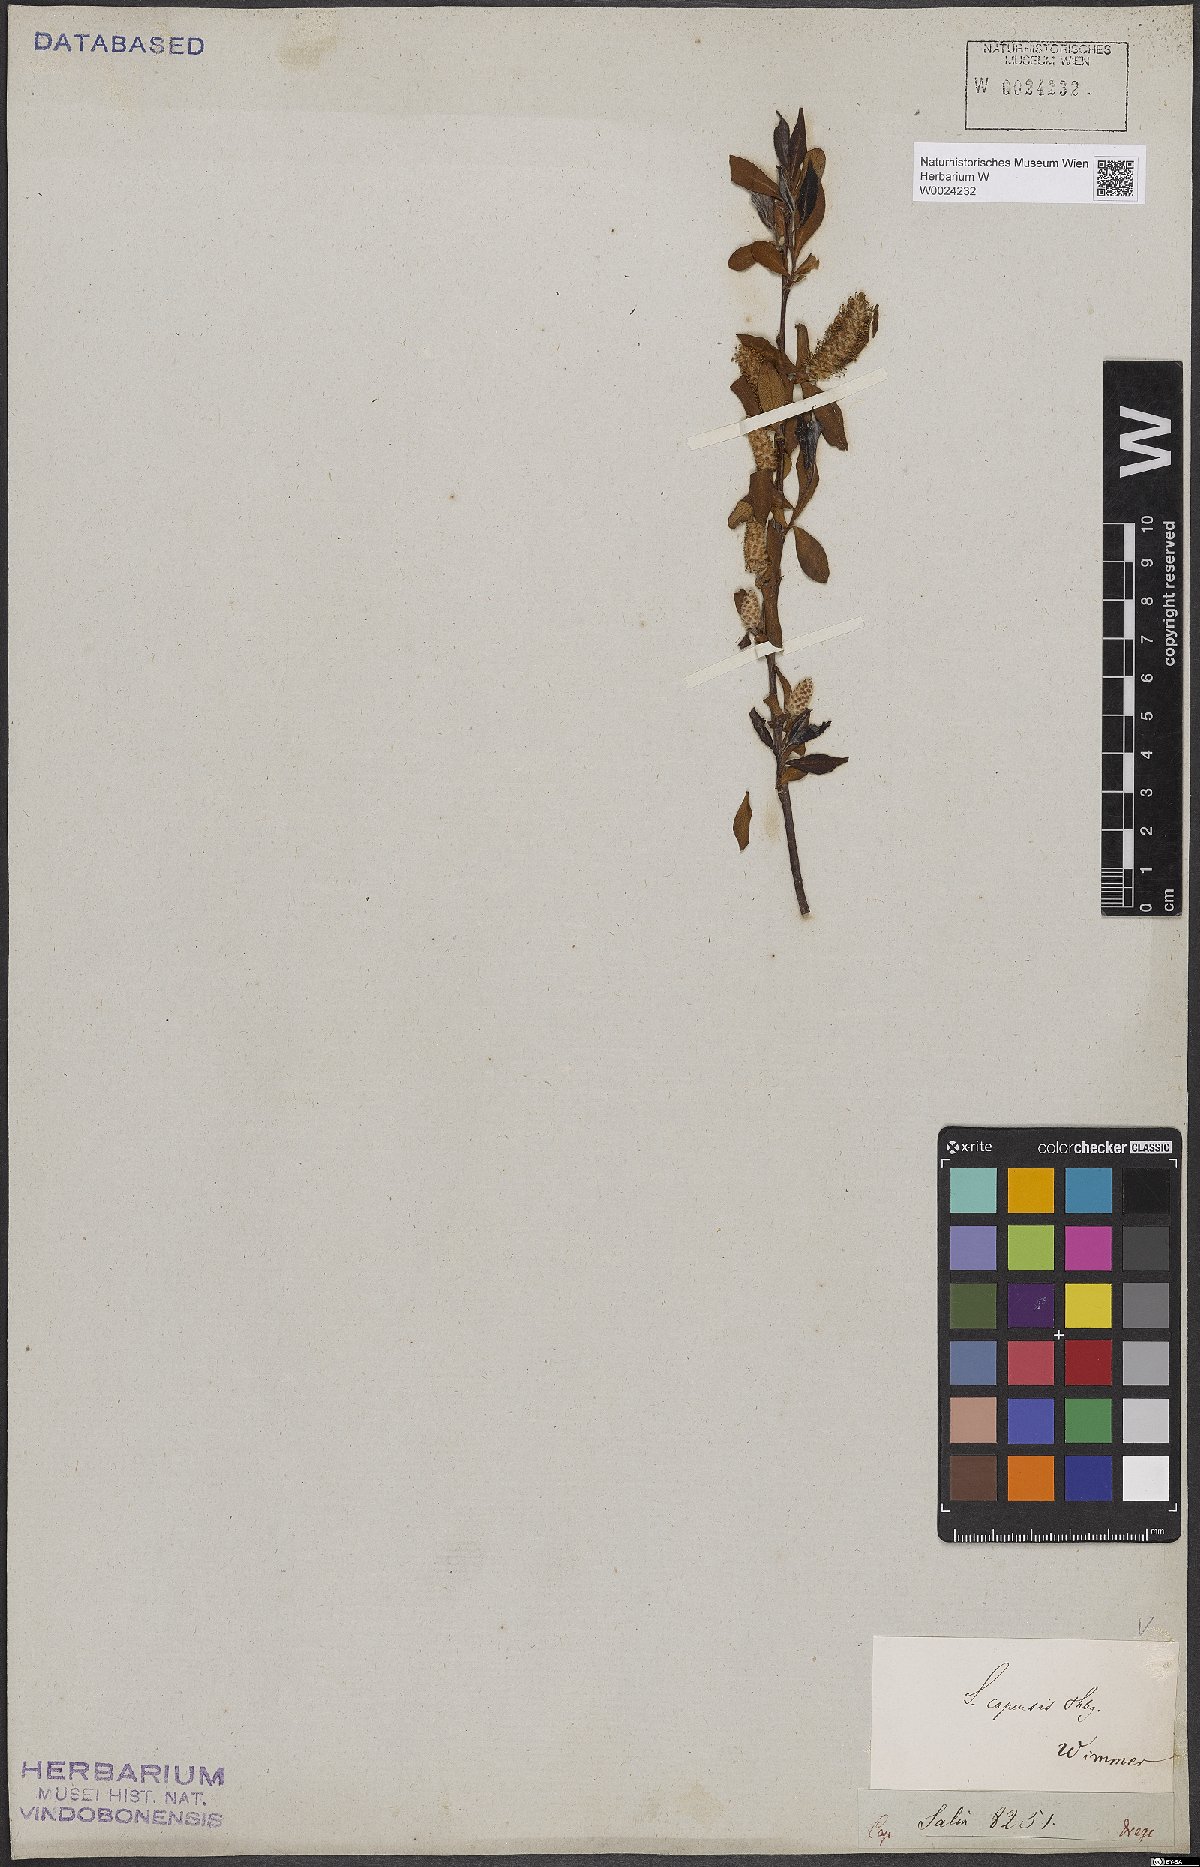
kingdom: Plantae
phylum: Tracheophyta
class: Magnoliopsida
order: Malpighiales
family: Salicaceae
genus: Salix
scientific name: Salix mucronata
